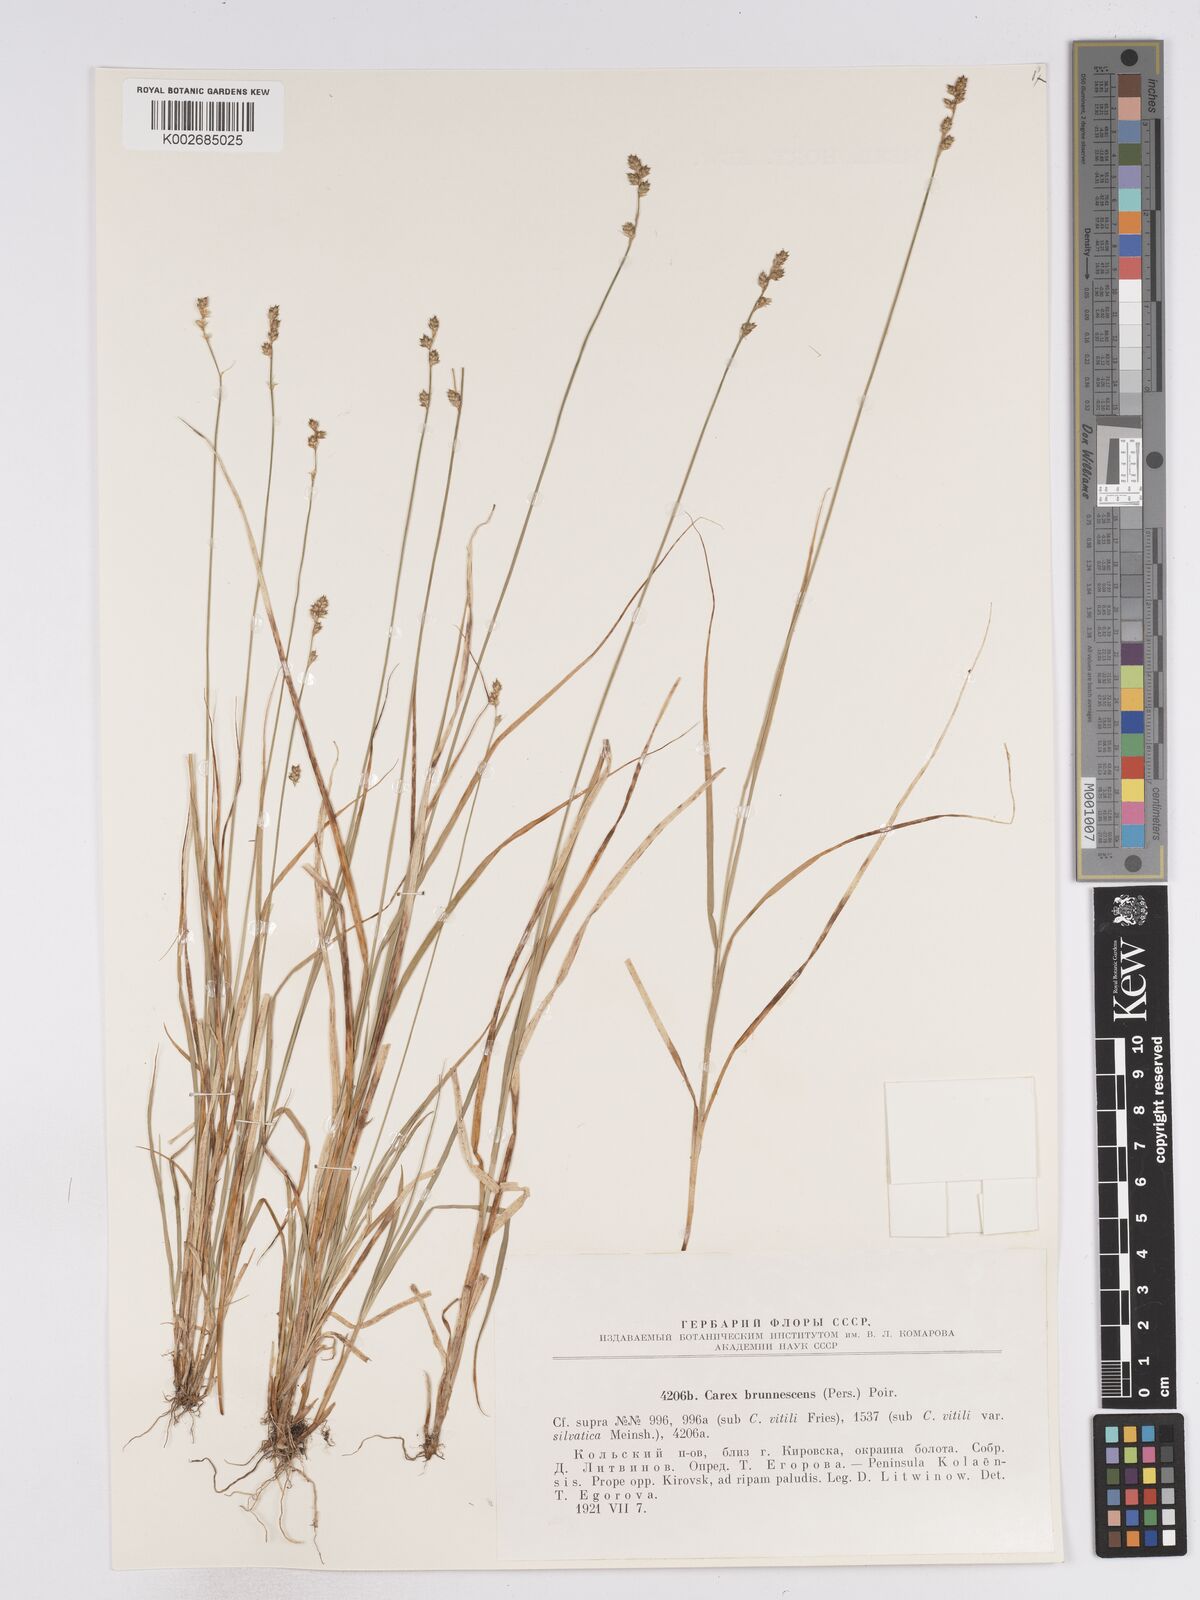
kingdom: Plantae
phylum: Tracheophyta
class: Liliopsida
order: Poales
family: Cyperaceae
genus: Carex
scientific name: Carex brunnescens
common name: Brown sedge
